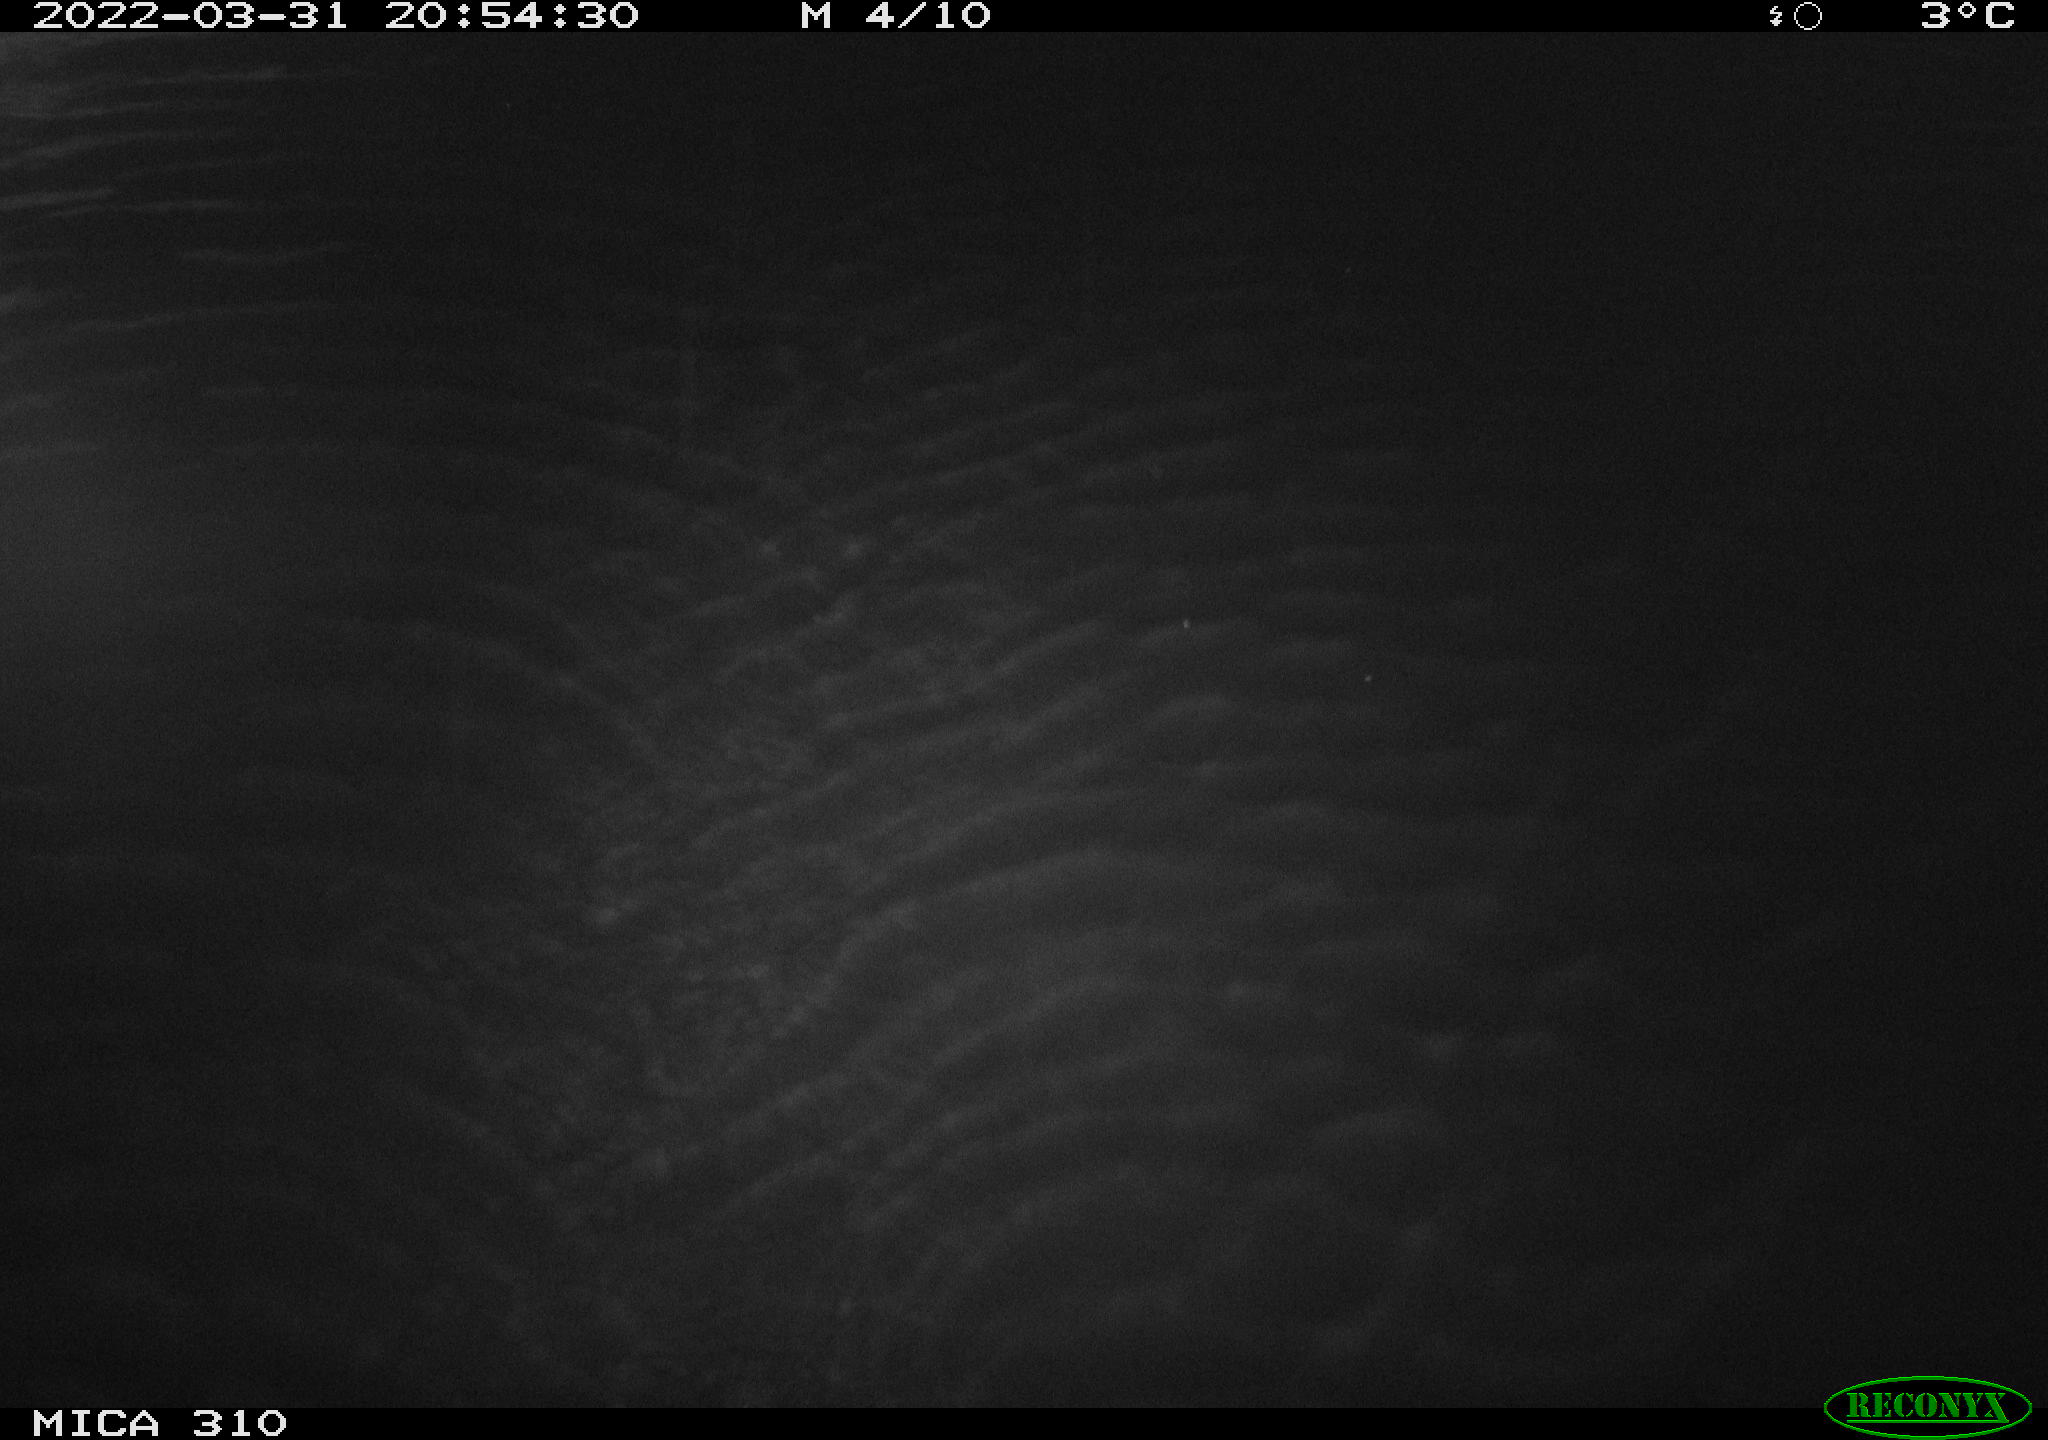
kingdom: Animalia
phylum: Chordata
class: Aves
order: Anseriformes
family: Anatidae
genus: Anas
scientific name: Anas platyrhynchos
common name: Mallard
